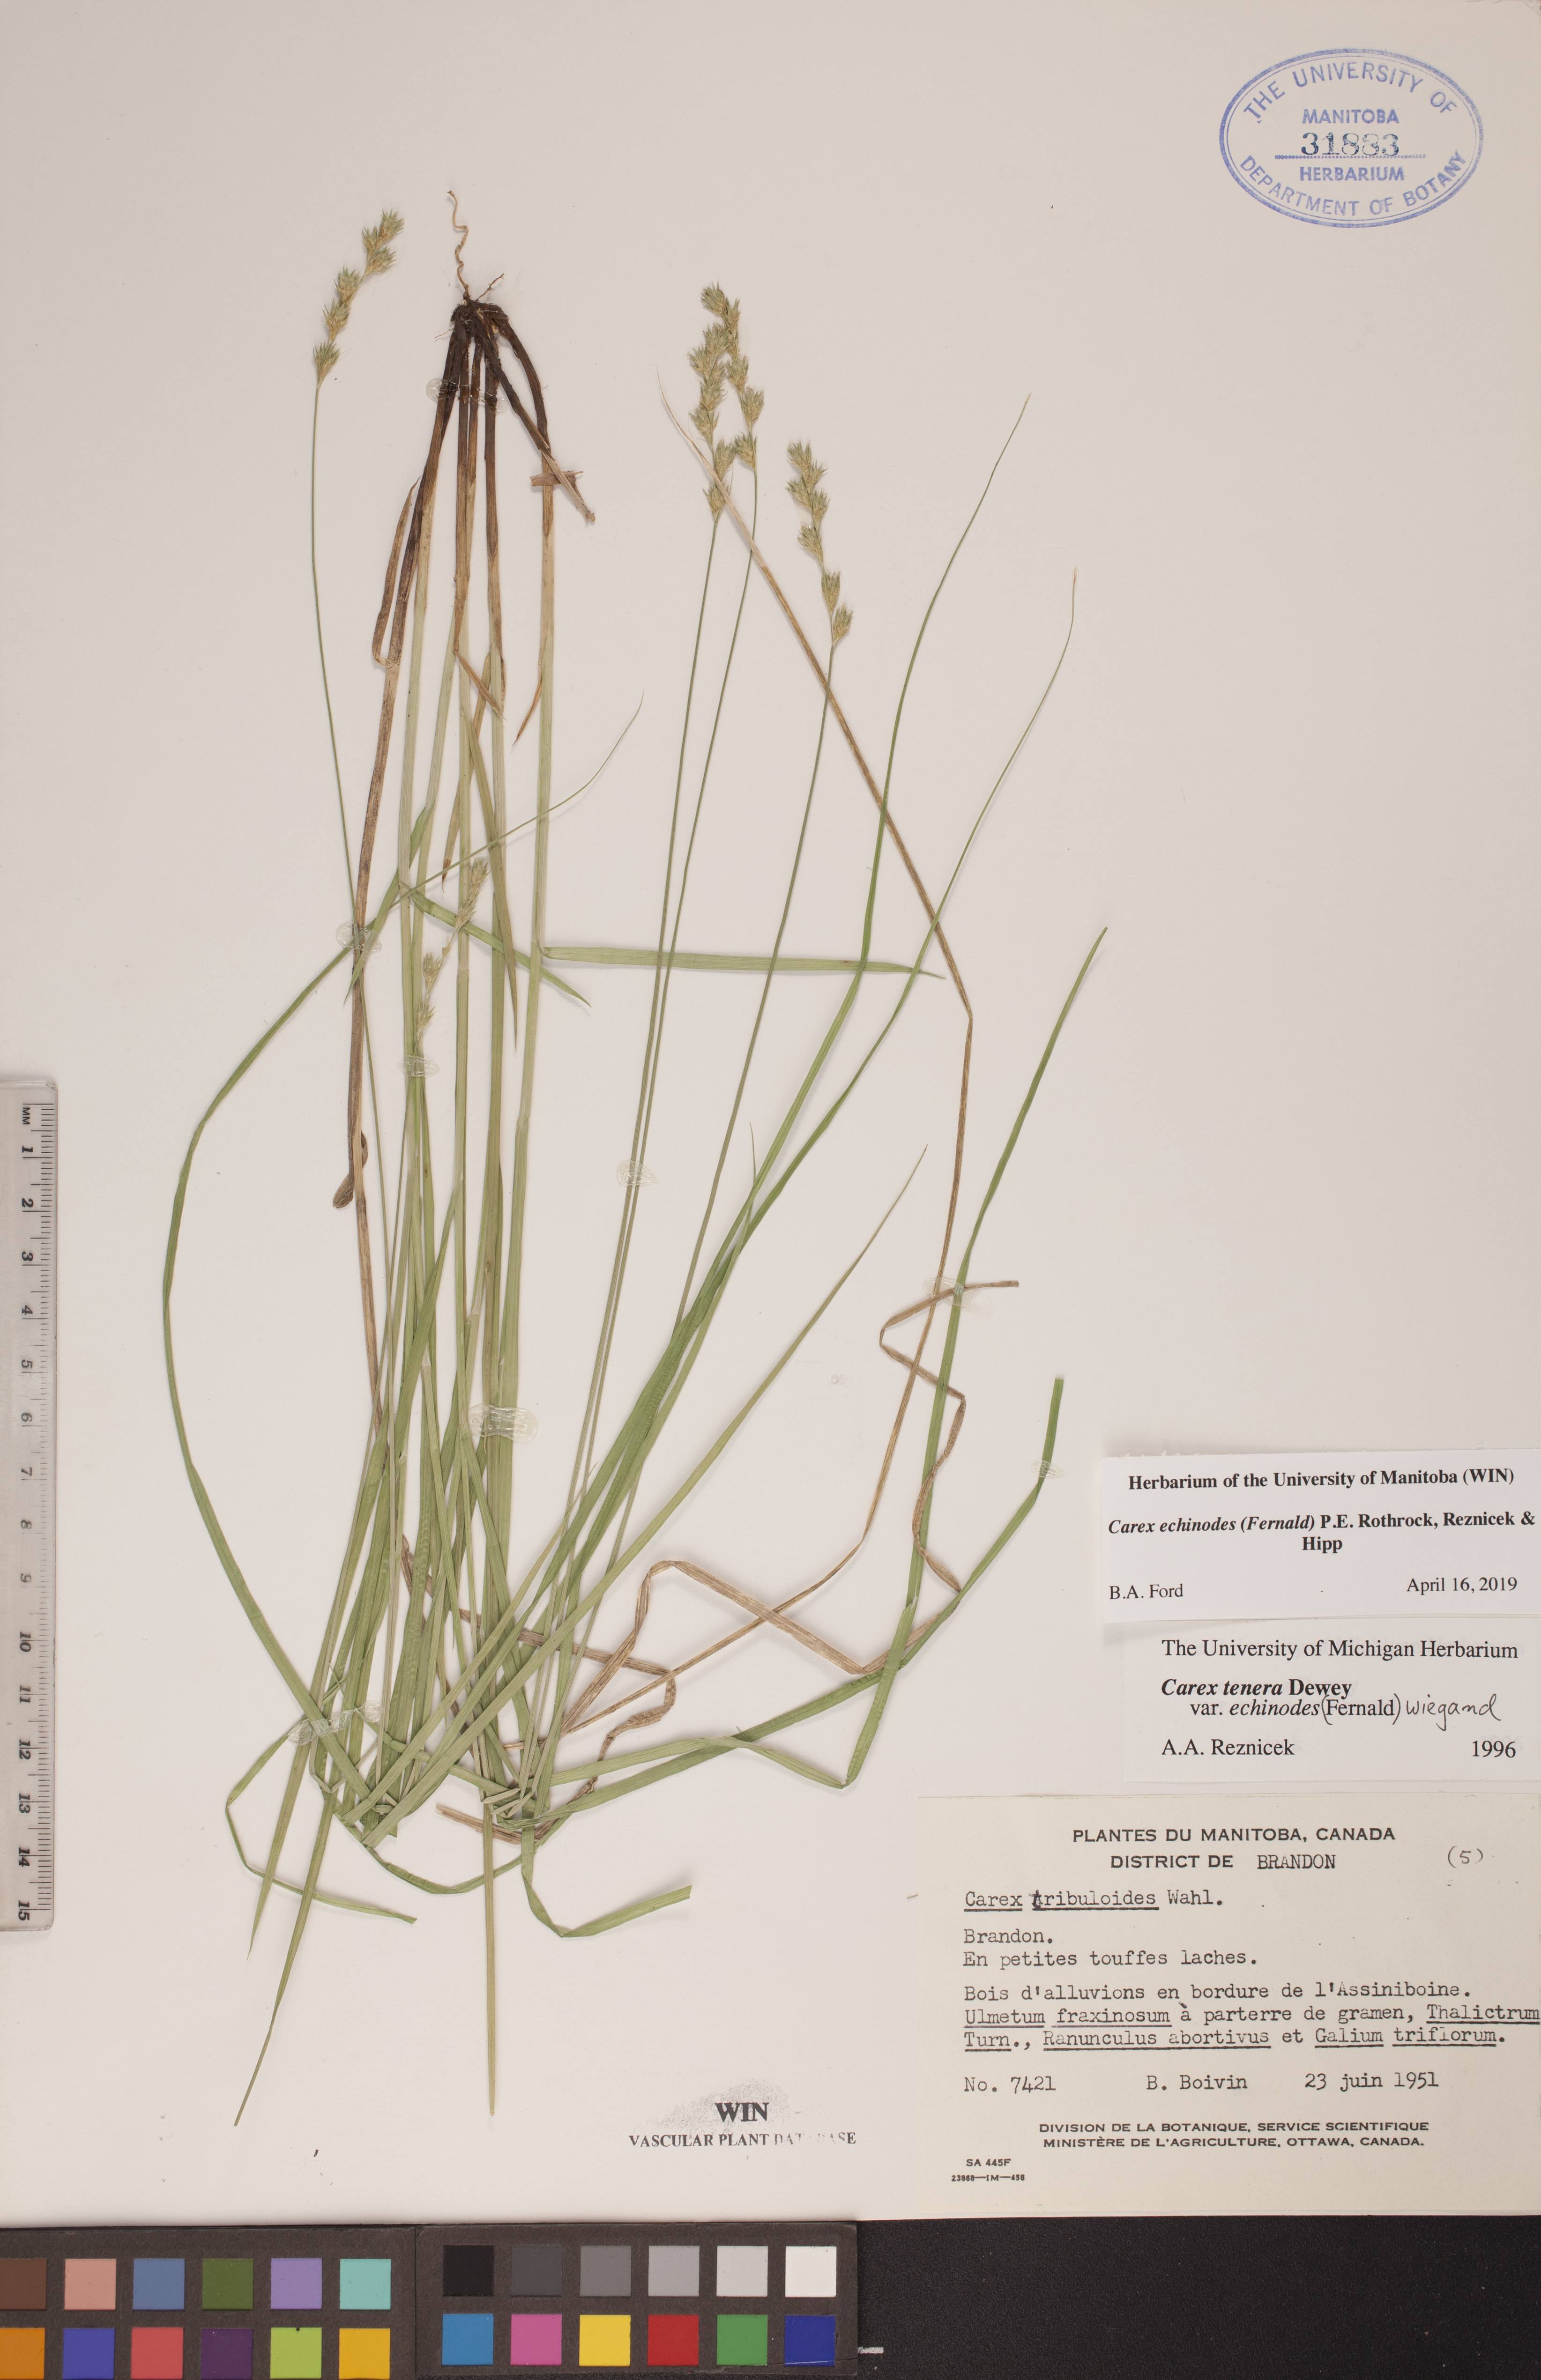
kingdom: Plantae
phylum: Tracheophyta
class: Liliopsida
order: Poales
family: Cyperaceae
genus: Carex
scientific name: Carex echinodes
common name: Marsh straw sedge
